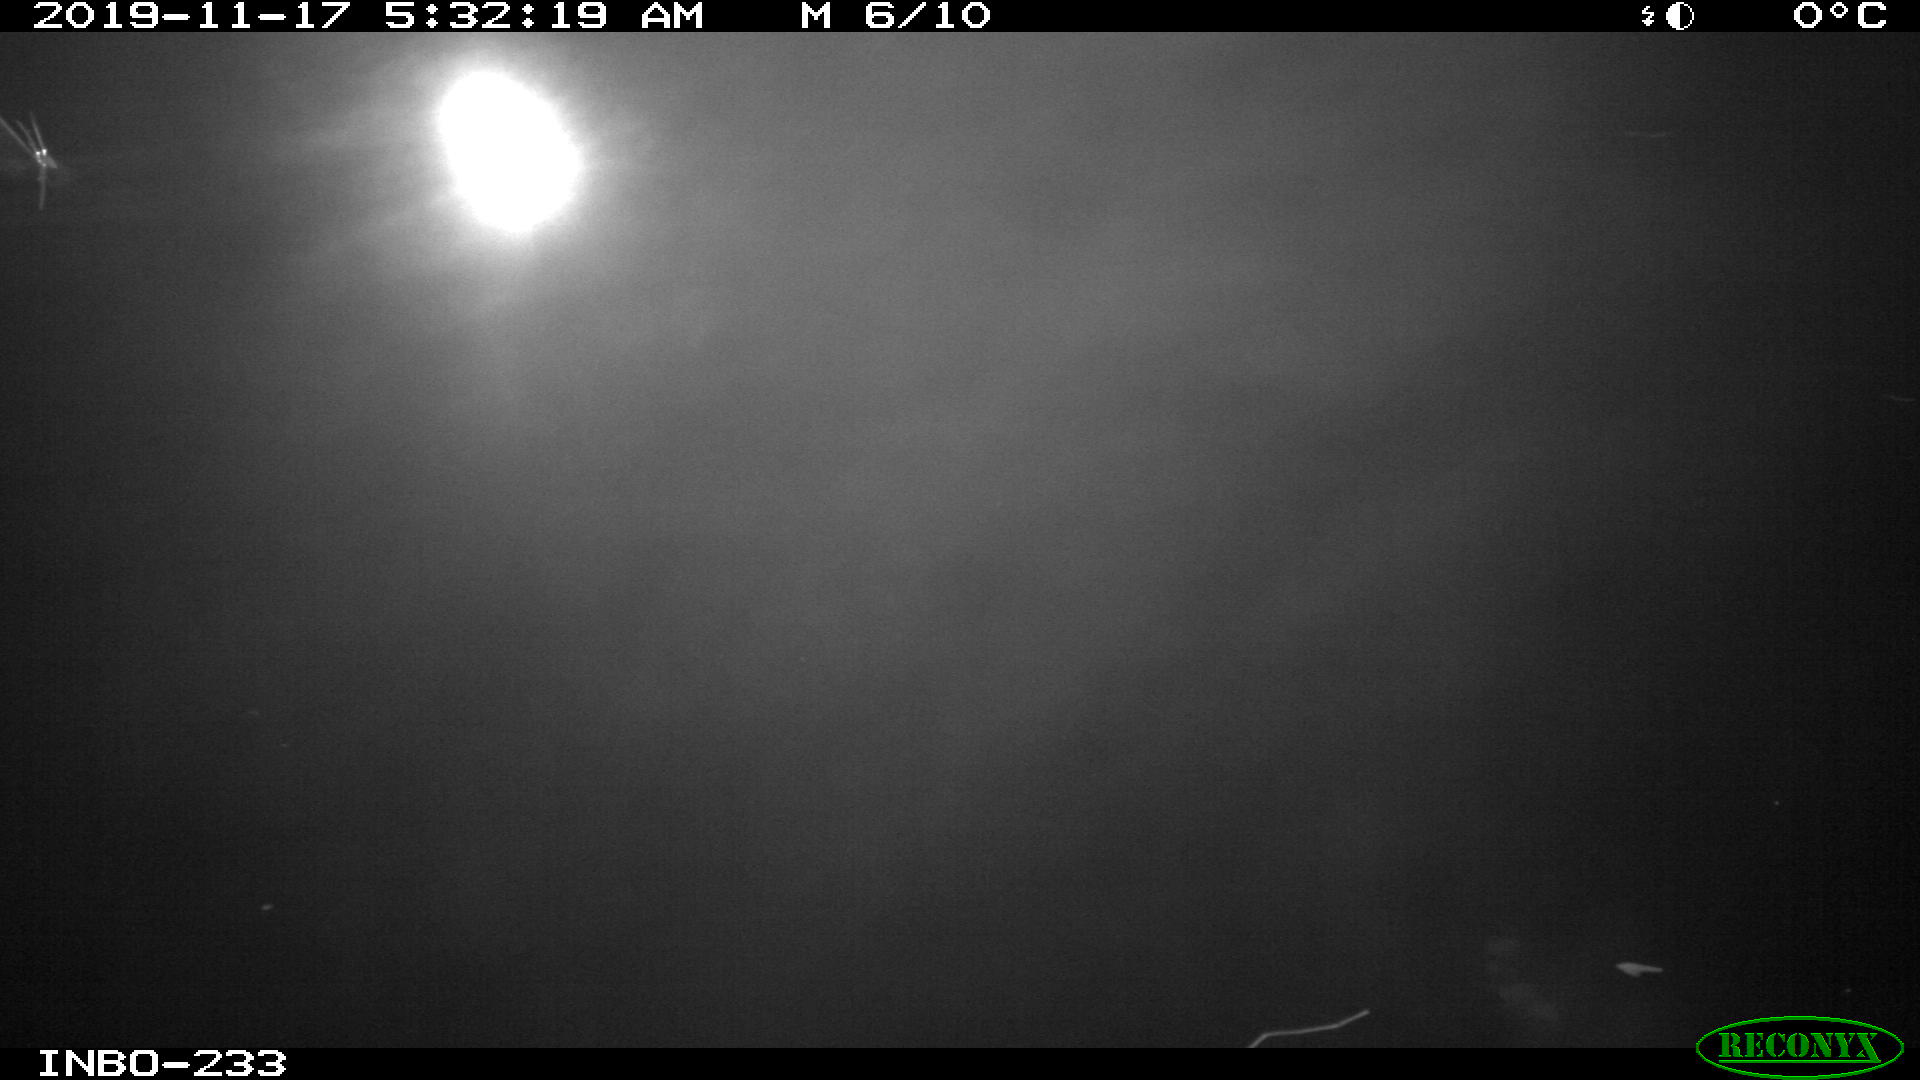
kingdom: Animalia
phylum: Chordata
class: Aves
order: Anseriformes
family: Anatidae
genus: Anas
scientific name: Anas platyrhynchos
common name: Mallard
